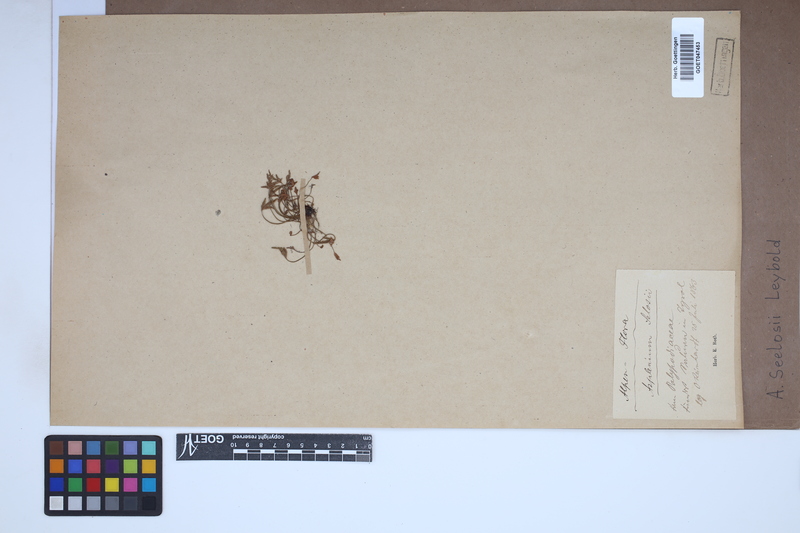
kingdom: Plantae
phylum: Tracheophyta
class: Polypodiopsida
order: Polypodiales
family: Aspleniaceae
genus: Asplenium
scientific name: Asplenium seelosii
